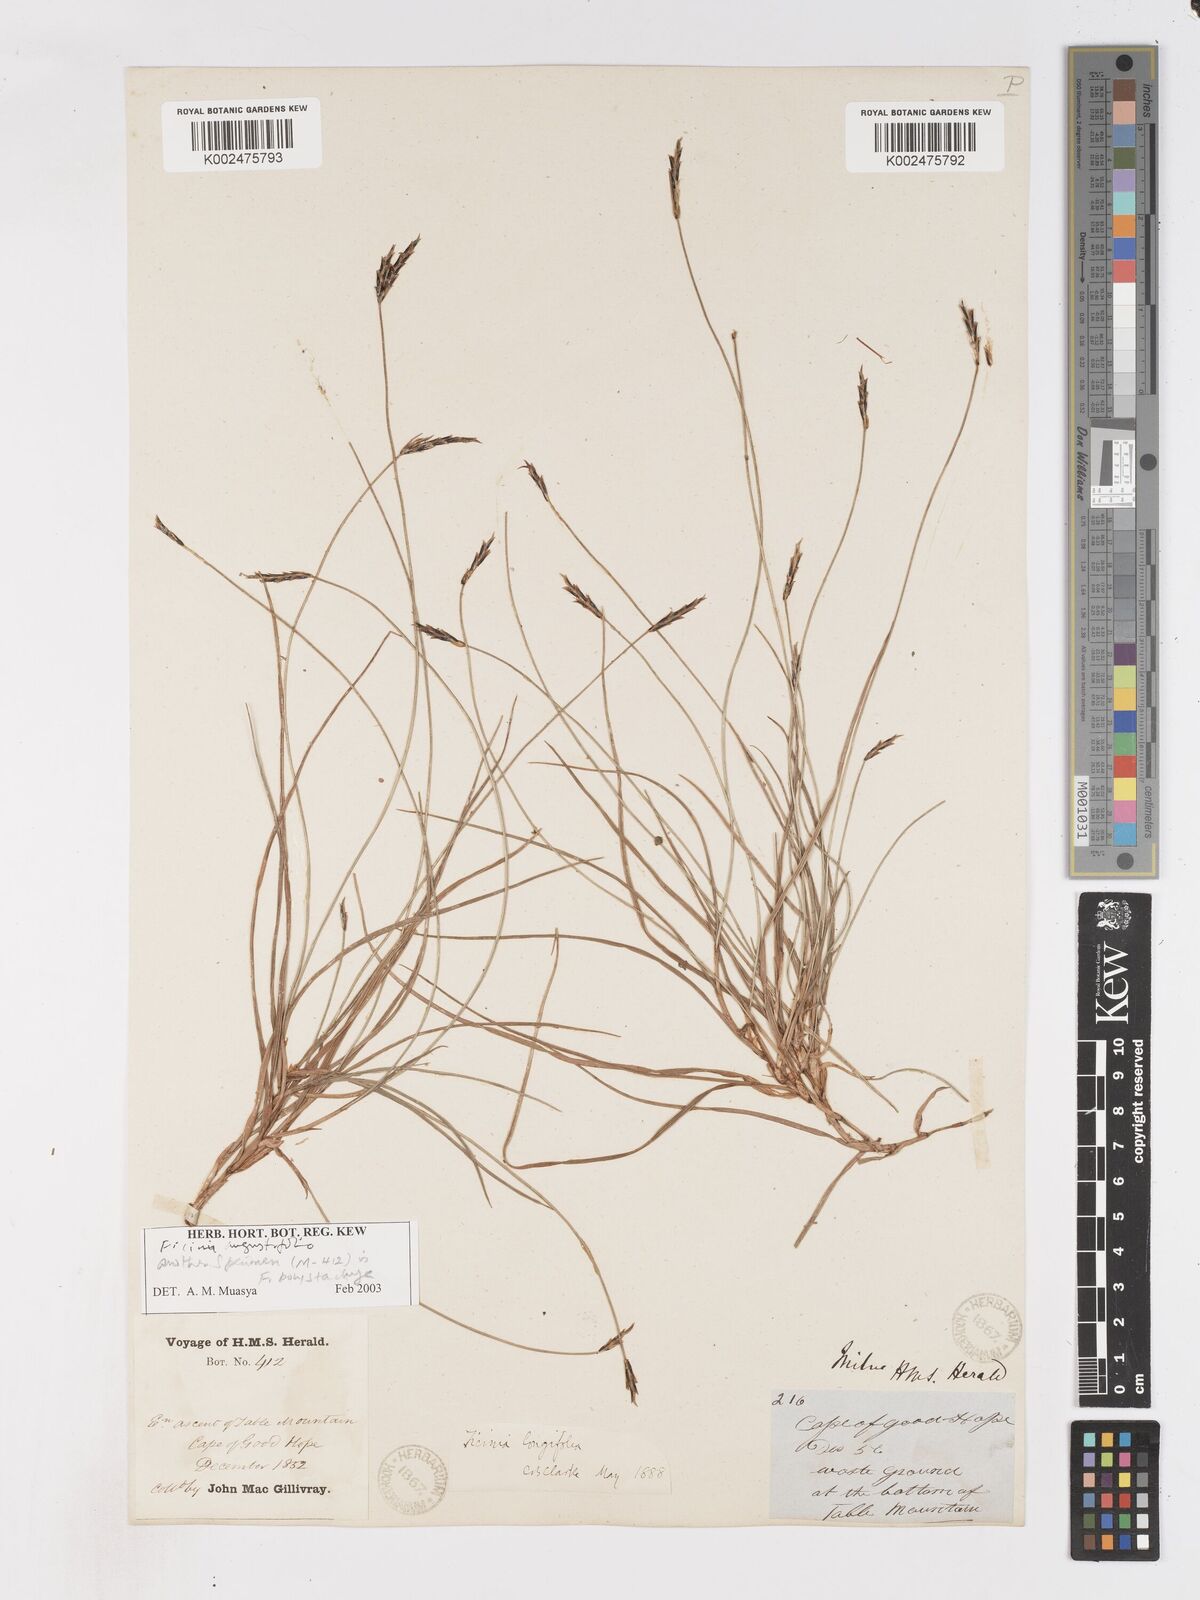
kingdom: Plantae
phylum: Tracheophyta
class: Liliopsida
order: Poales
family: Cyperaceae
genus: Ficinia
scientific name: Ficinia angustifolia
